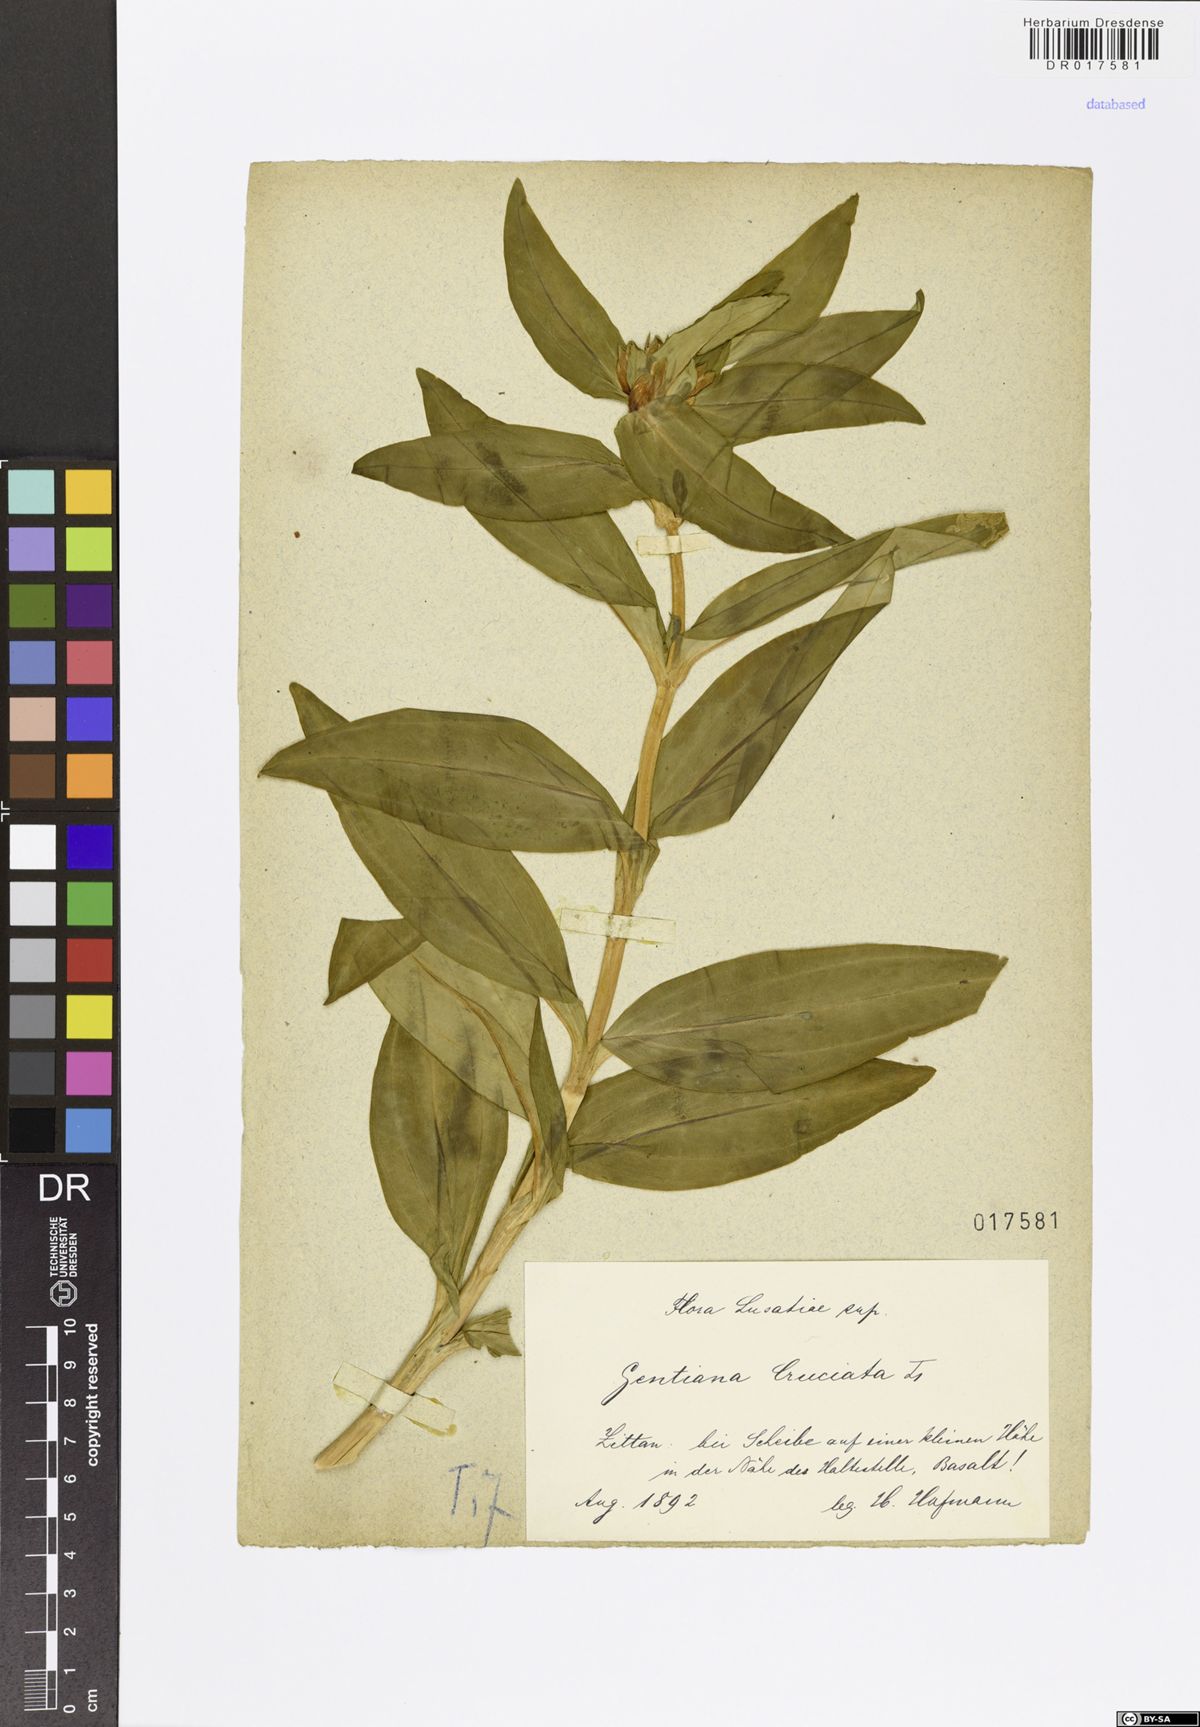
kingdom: Plantae
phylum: Tracheophyta
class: Magnoliopsida
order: Gentianales
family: Gentianaceae
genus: Gentiana
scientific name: Gentiana cruciata
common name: Cross gentian
